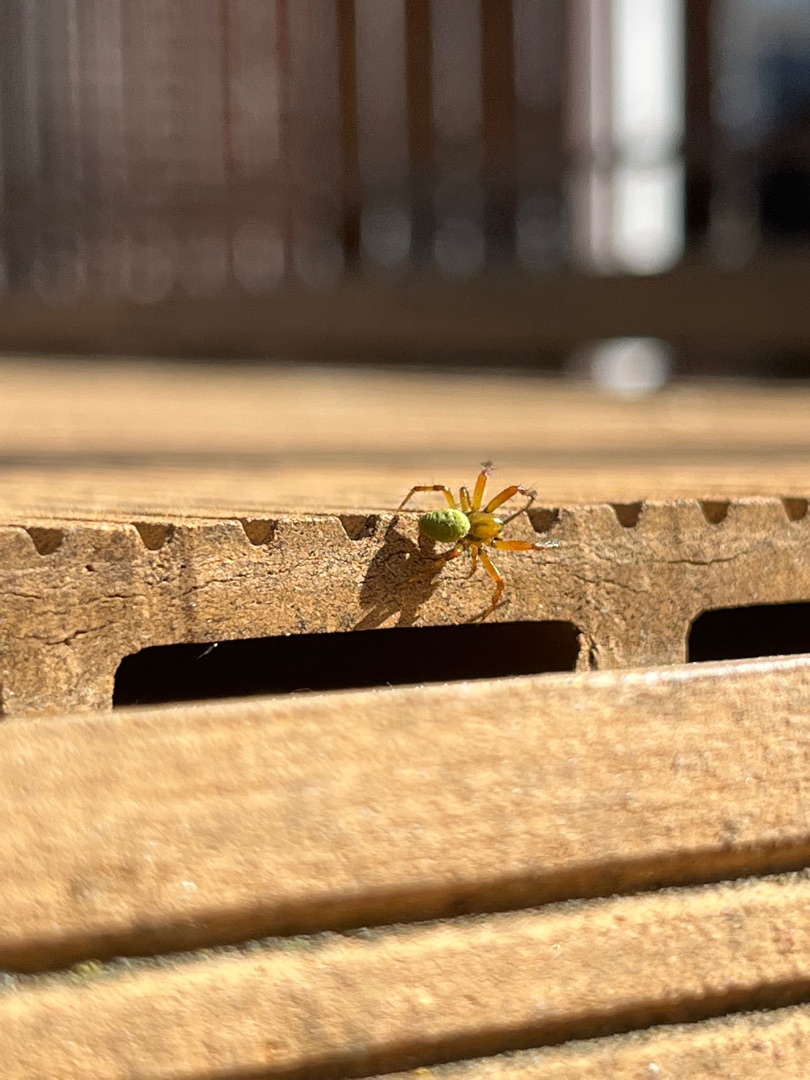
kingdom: Animalia
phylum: Arthropoda
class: Arachnida
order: Araneae
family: Araneidae
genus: Araniella
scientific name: Araniella
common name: Agurkeedderkopslægten
